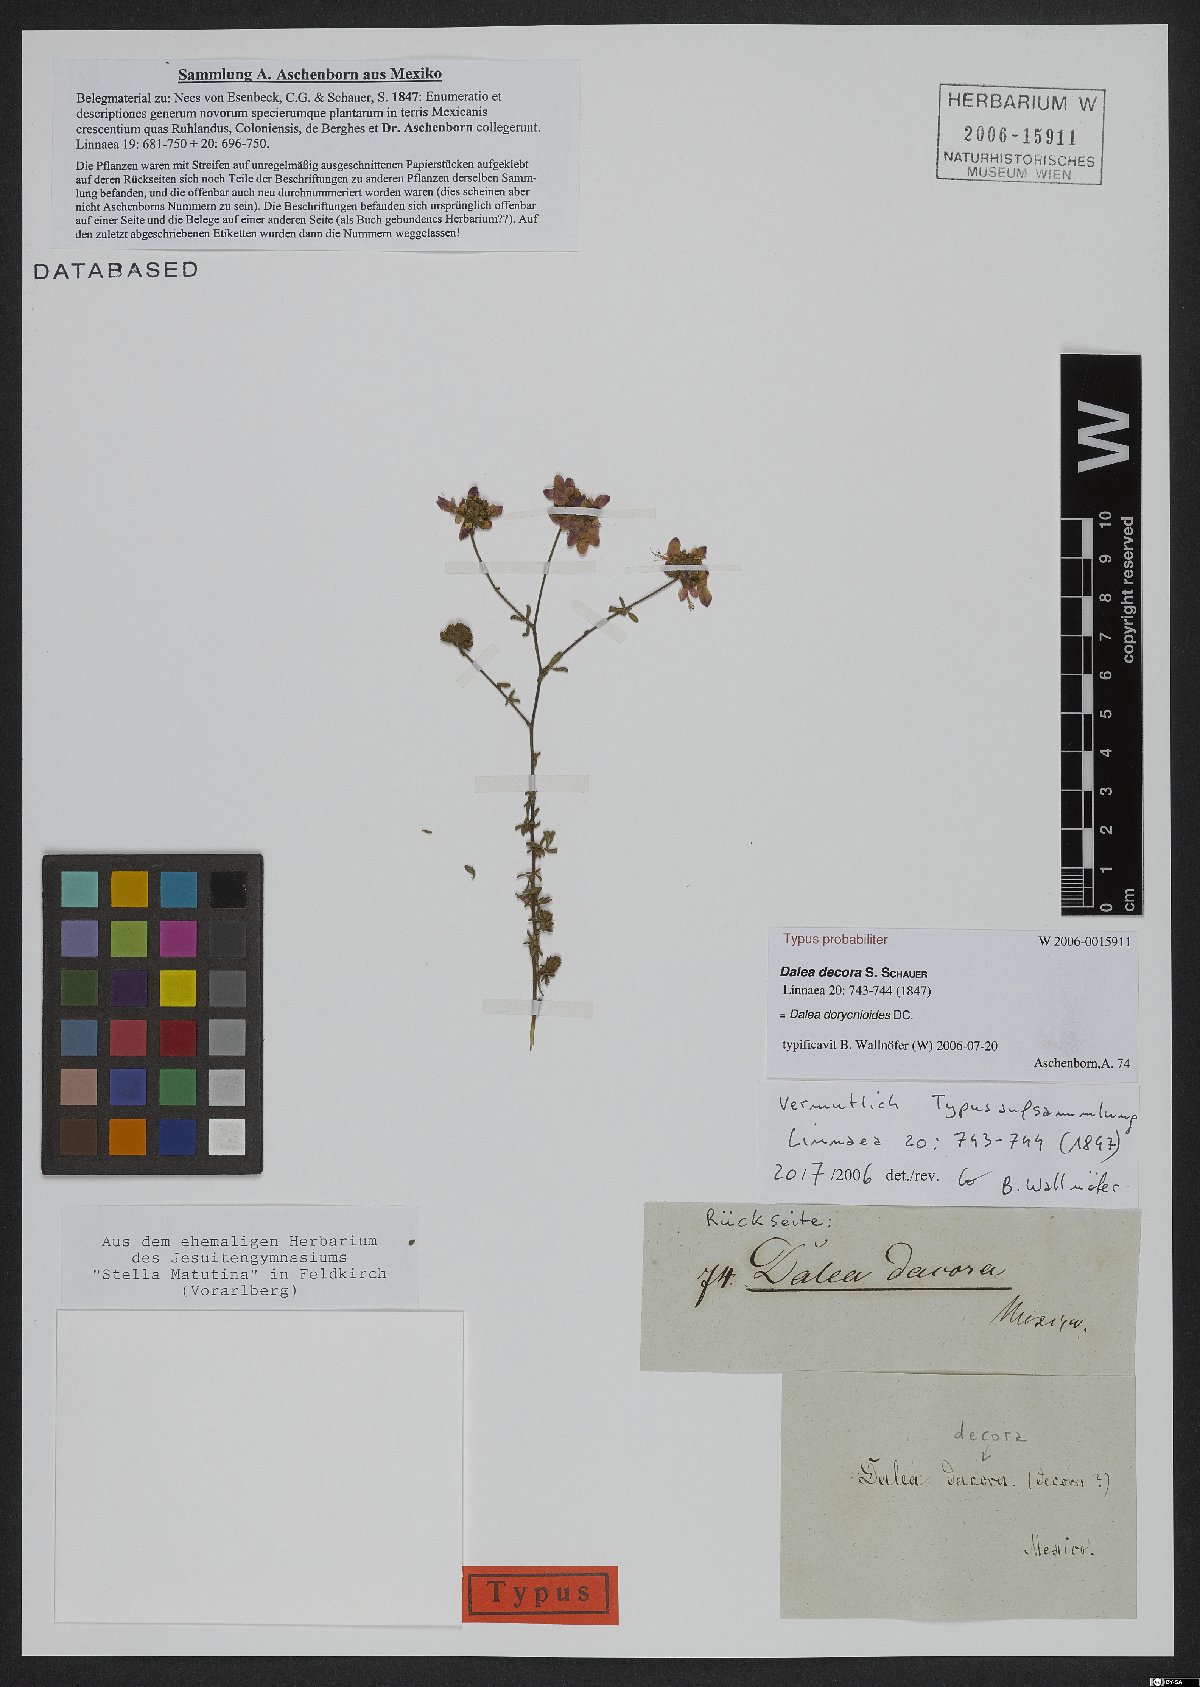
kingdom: Plantae
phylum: Tracheophyta
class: Magnoliopsida
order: Fabales
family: Fabaceae
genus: Dalea
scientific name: Dalea dorycnioides
